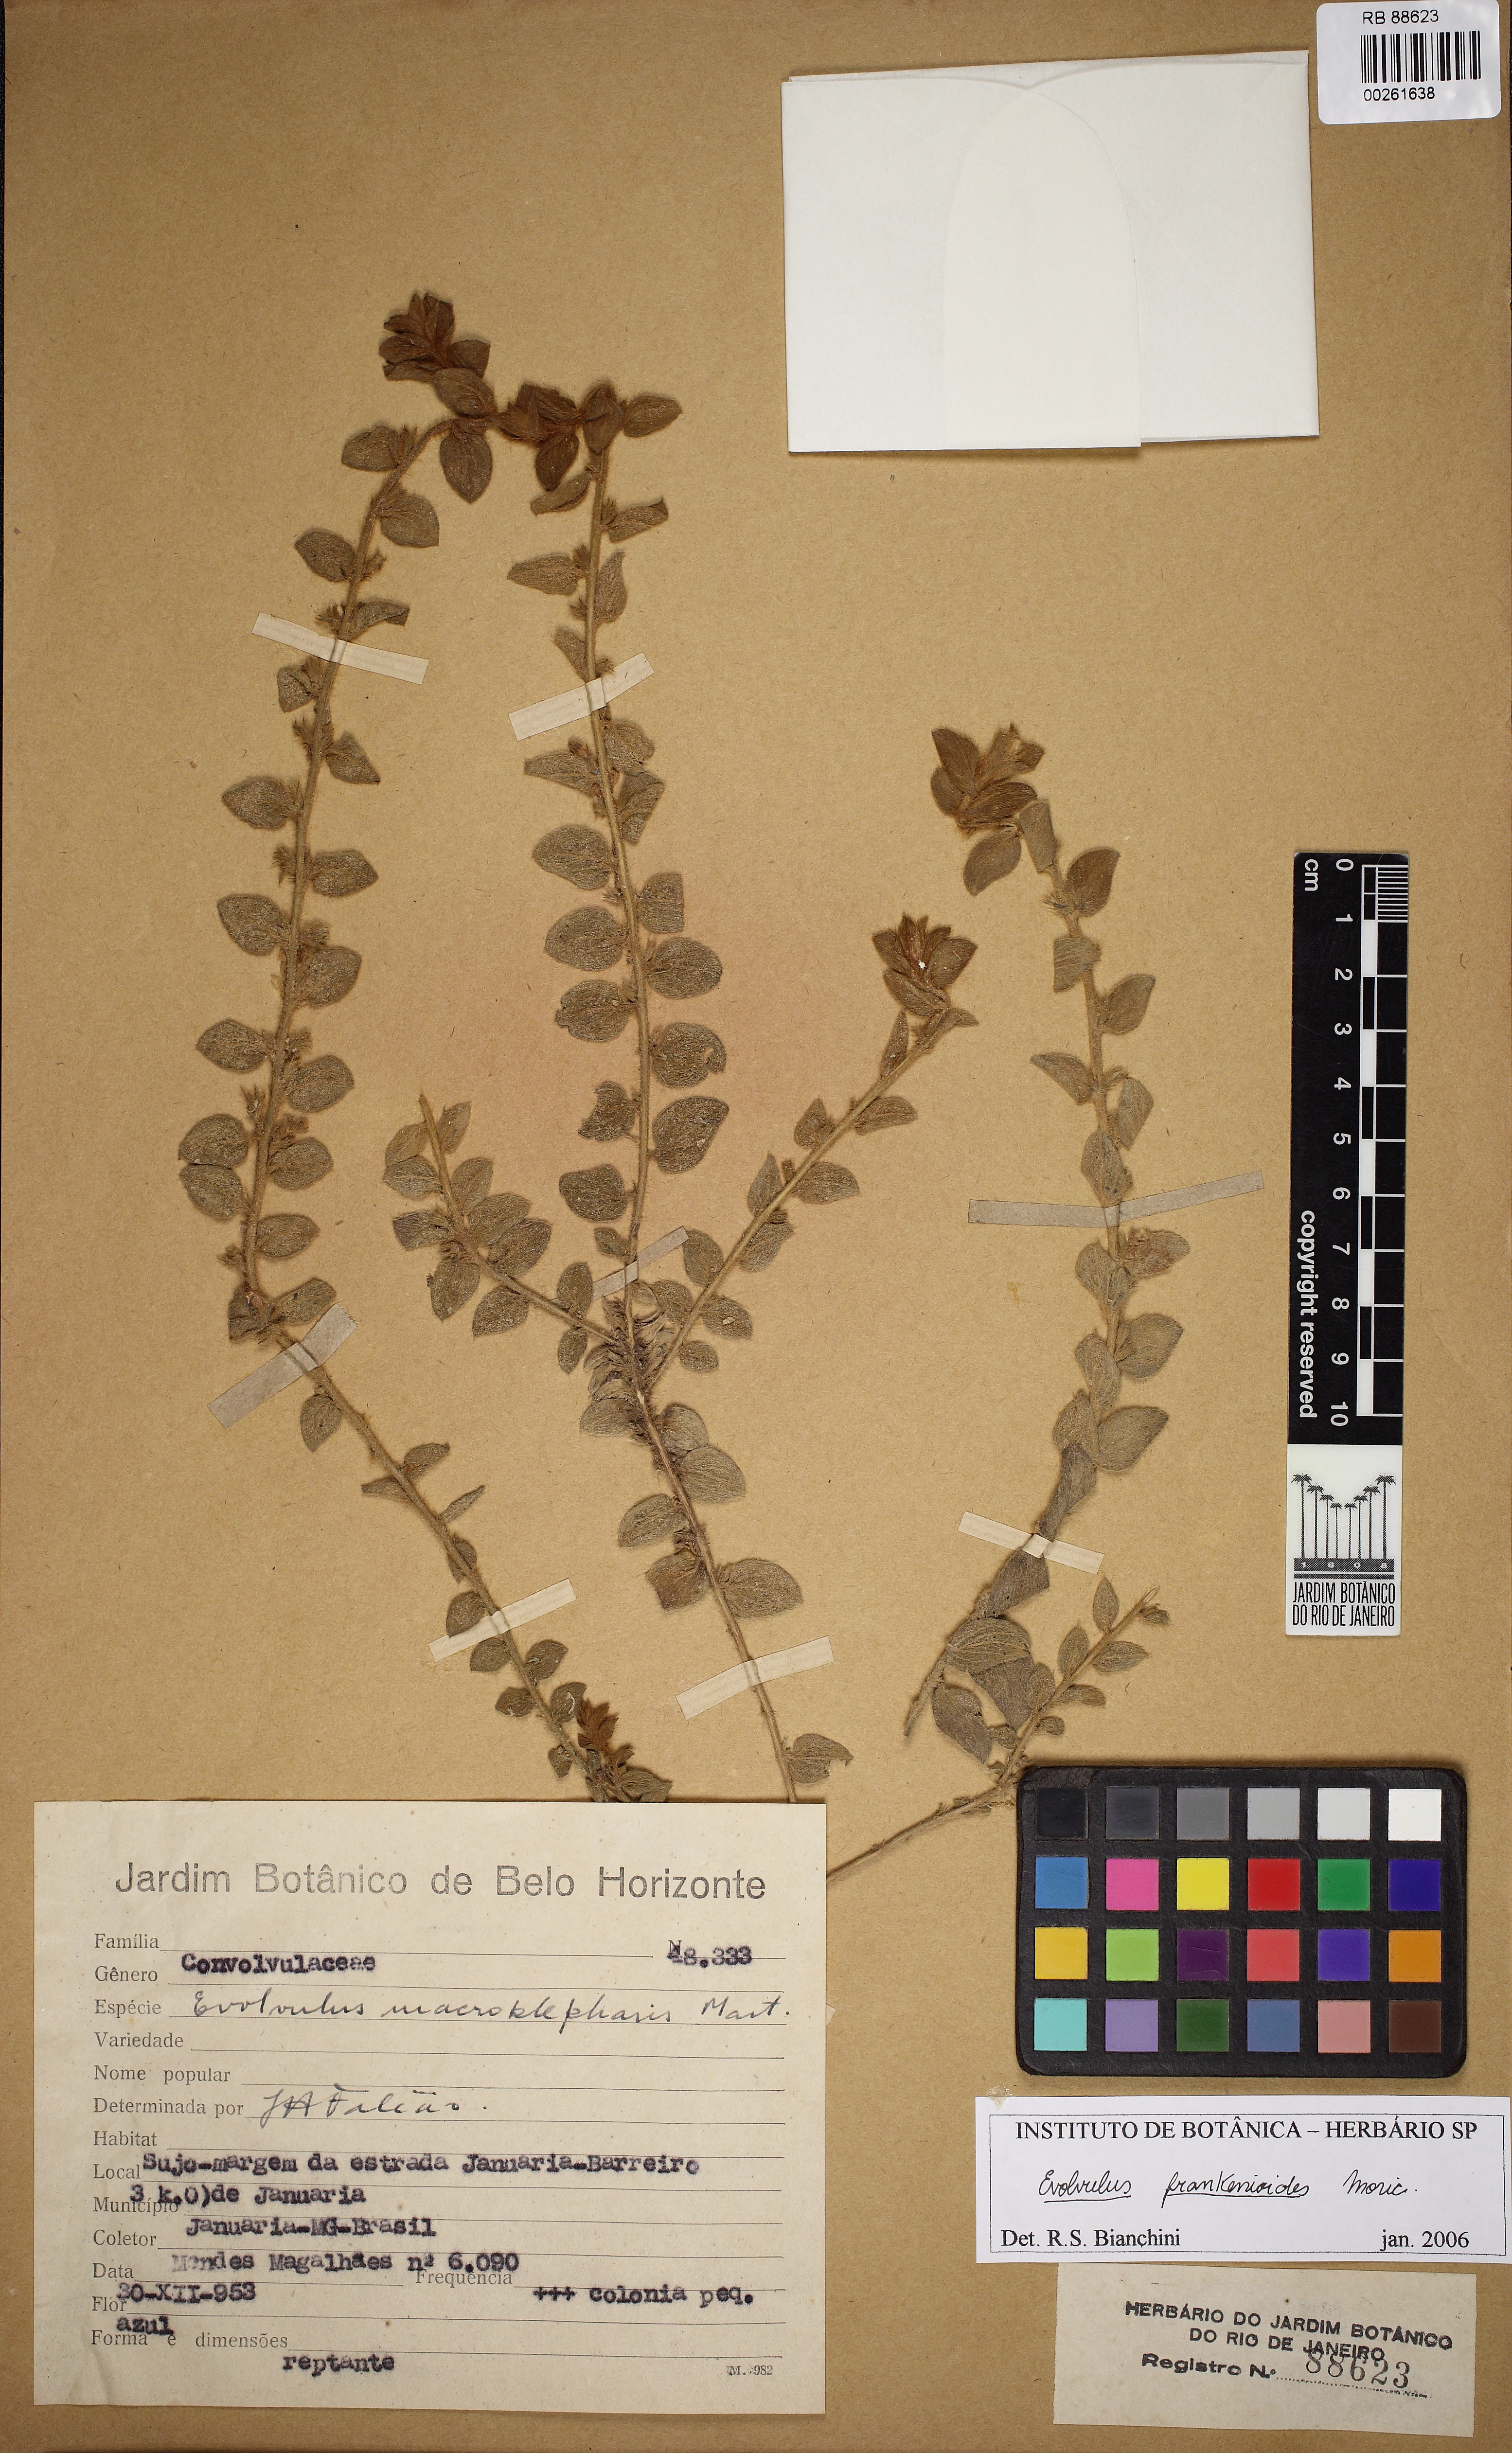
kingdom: Plantae
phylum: Tracheophyta
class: Magnoliopsida
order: Solanales
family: Convolvulaceae
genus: Evolvulus
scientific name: Evolvulus frankenioides
